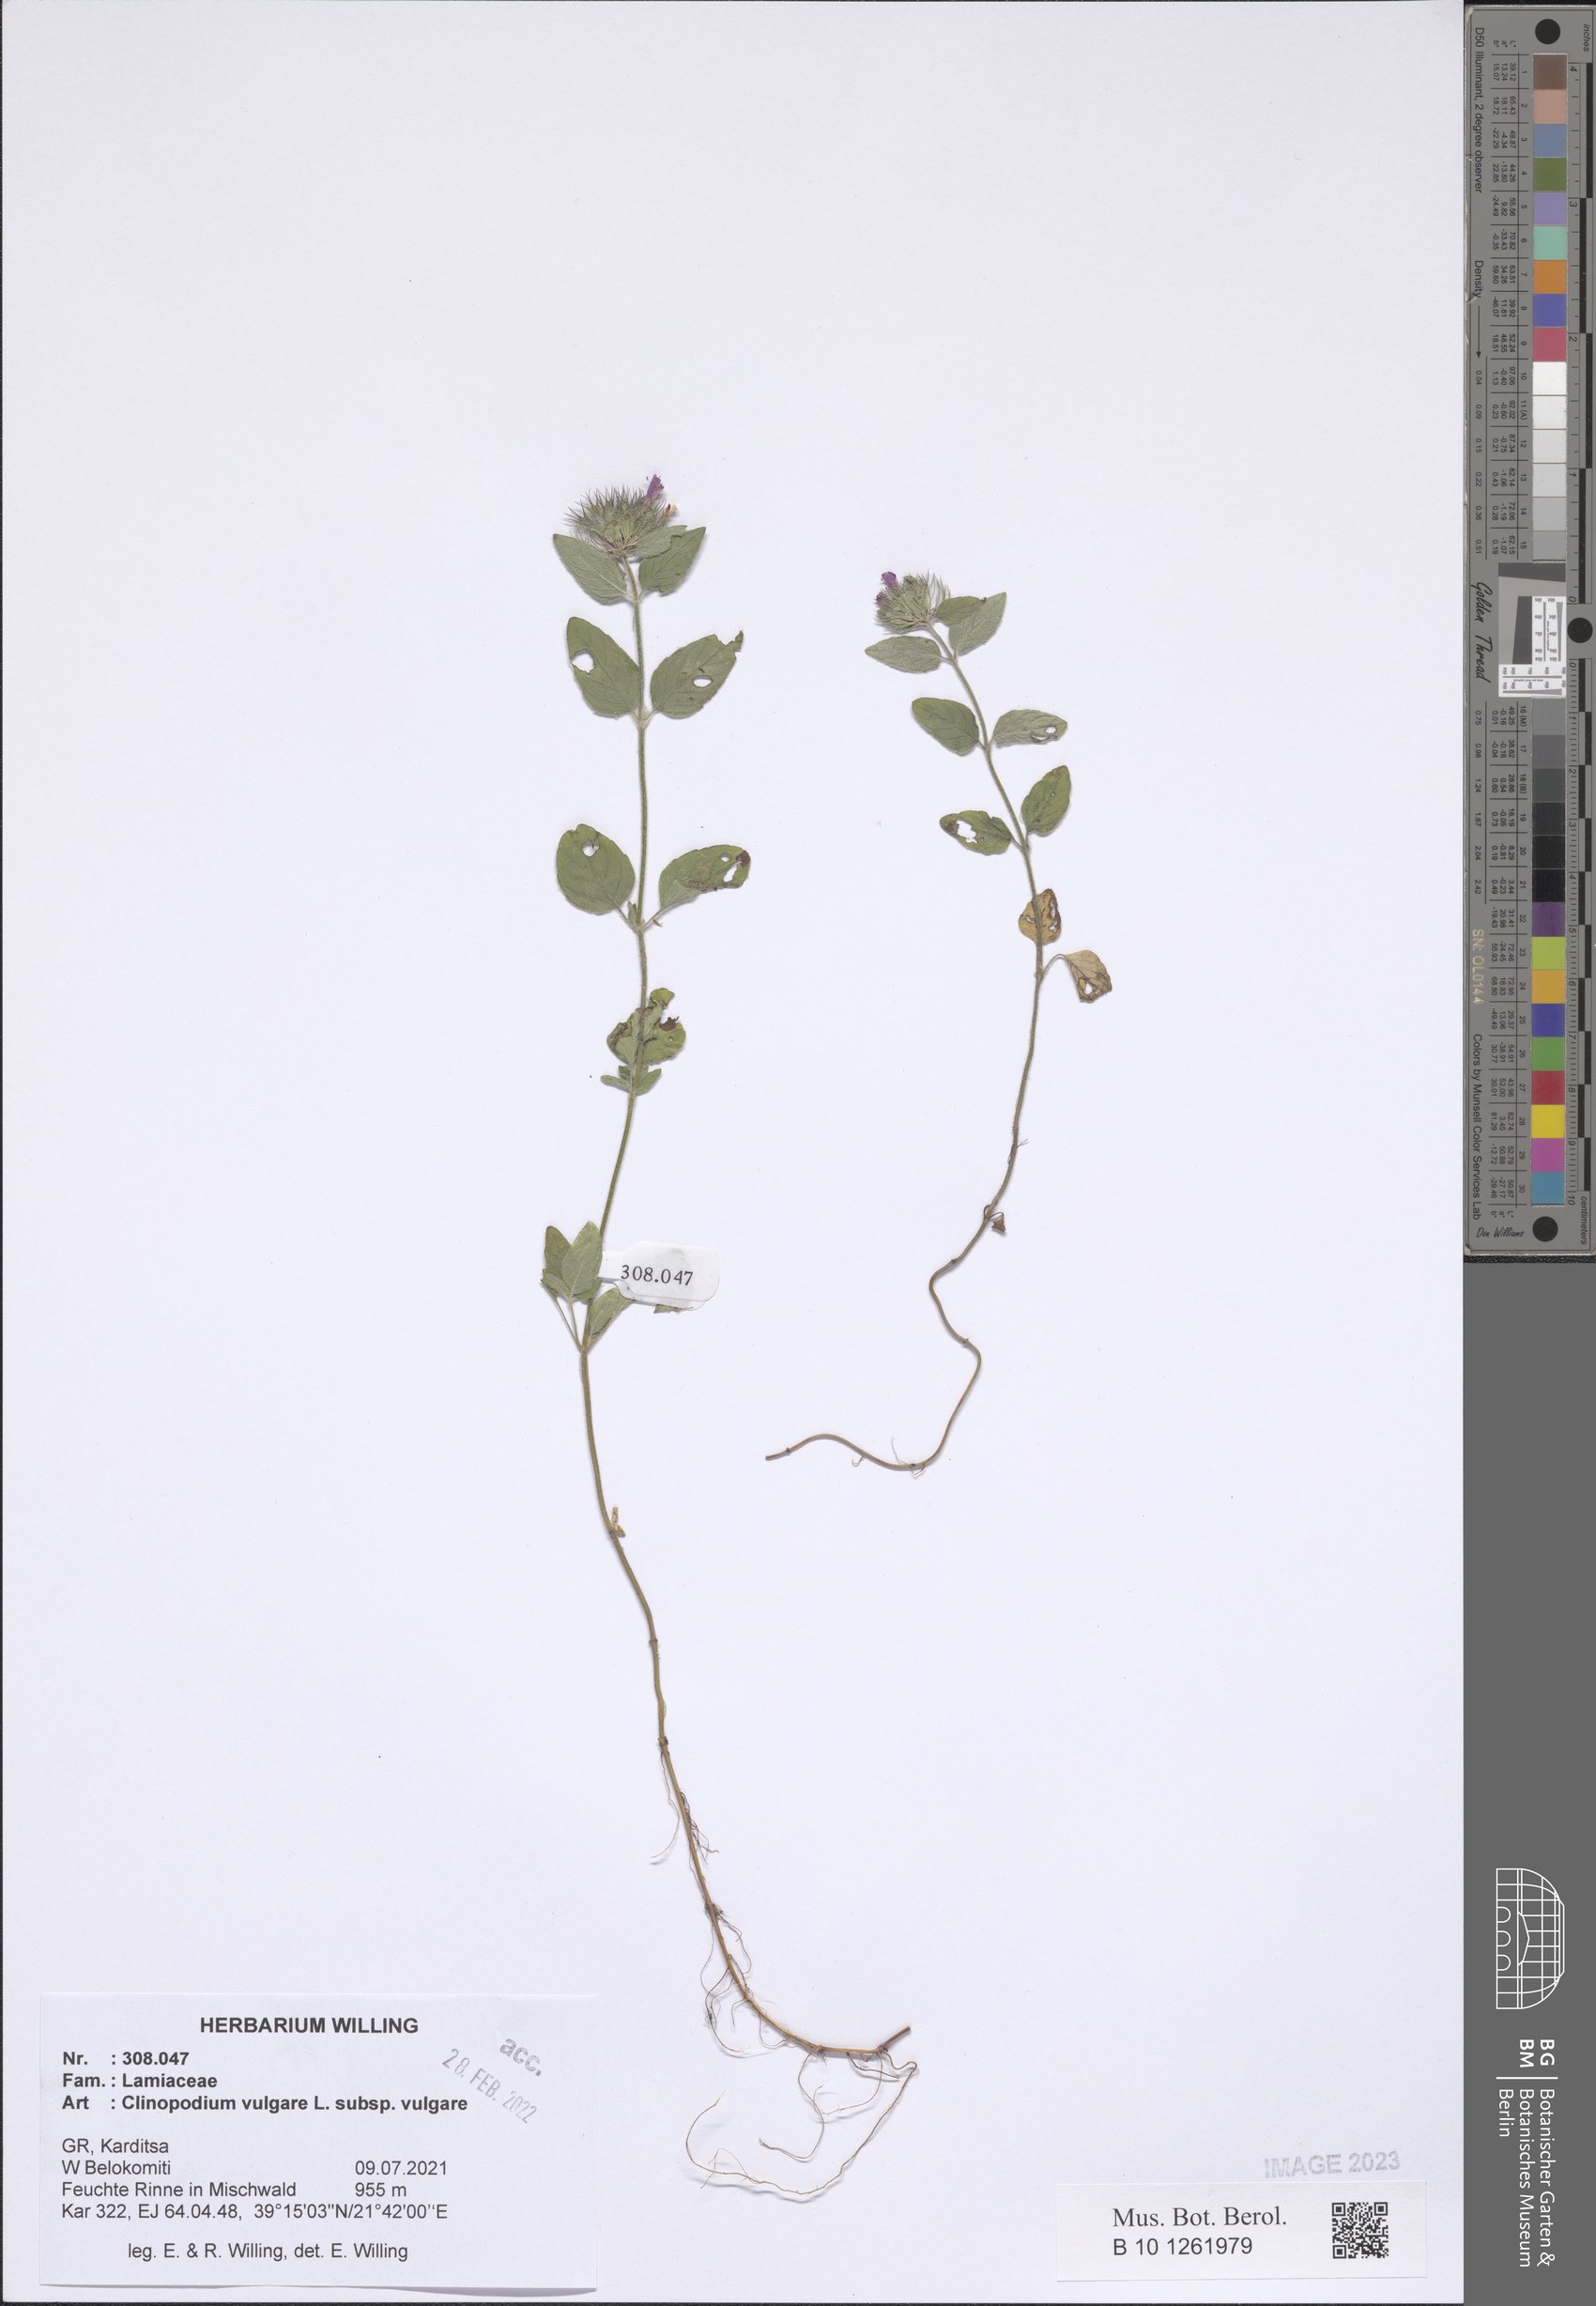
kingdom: Plantae
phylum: Tracheophyta
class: Magnoliopsida
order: Lamiales
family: Lamiaceae
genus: Clinopodium
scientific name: Clinopodium vulgare
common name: Wild basil
